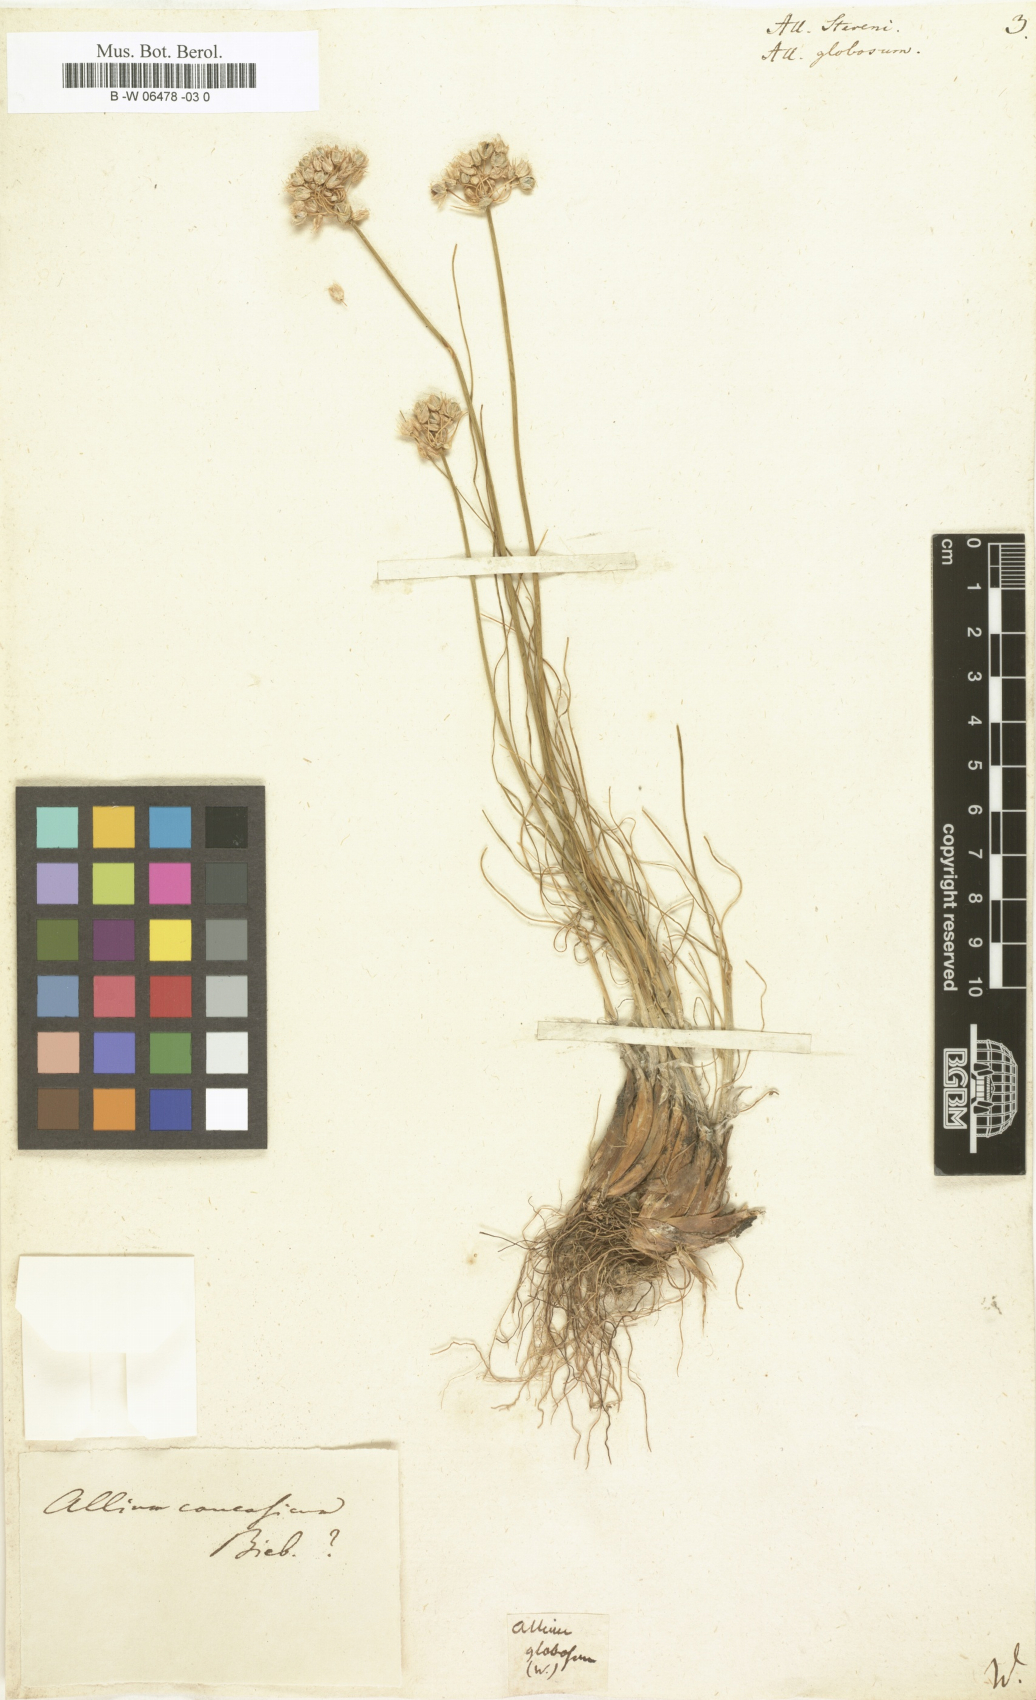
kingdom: Plantae
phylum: Tracheophyta
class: Liliopsida
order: Asparagales
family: Amaryllidaceae
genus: Allium
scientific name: Allium saxatile
